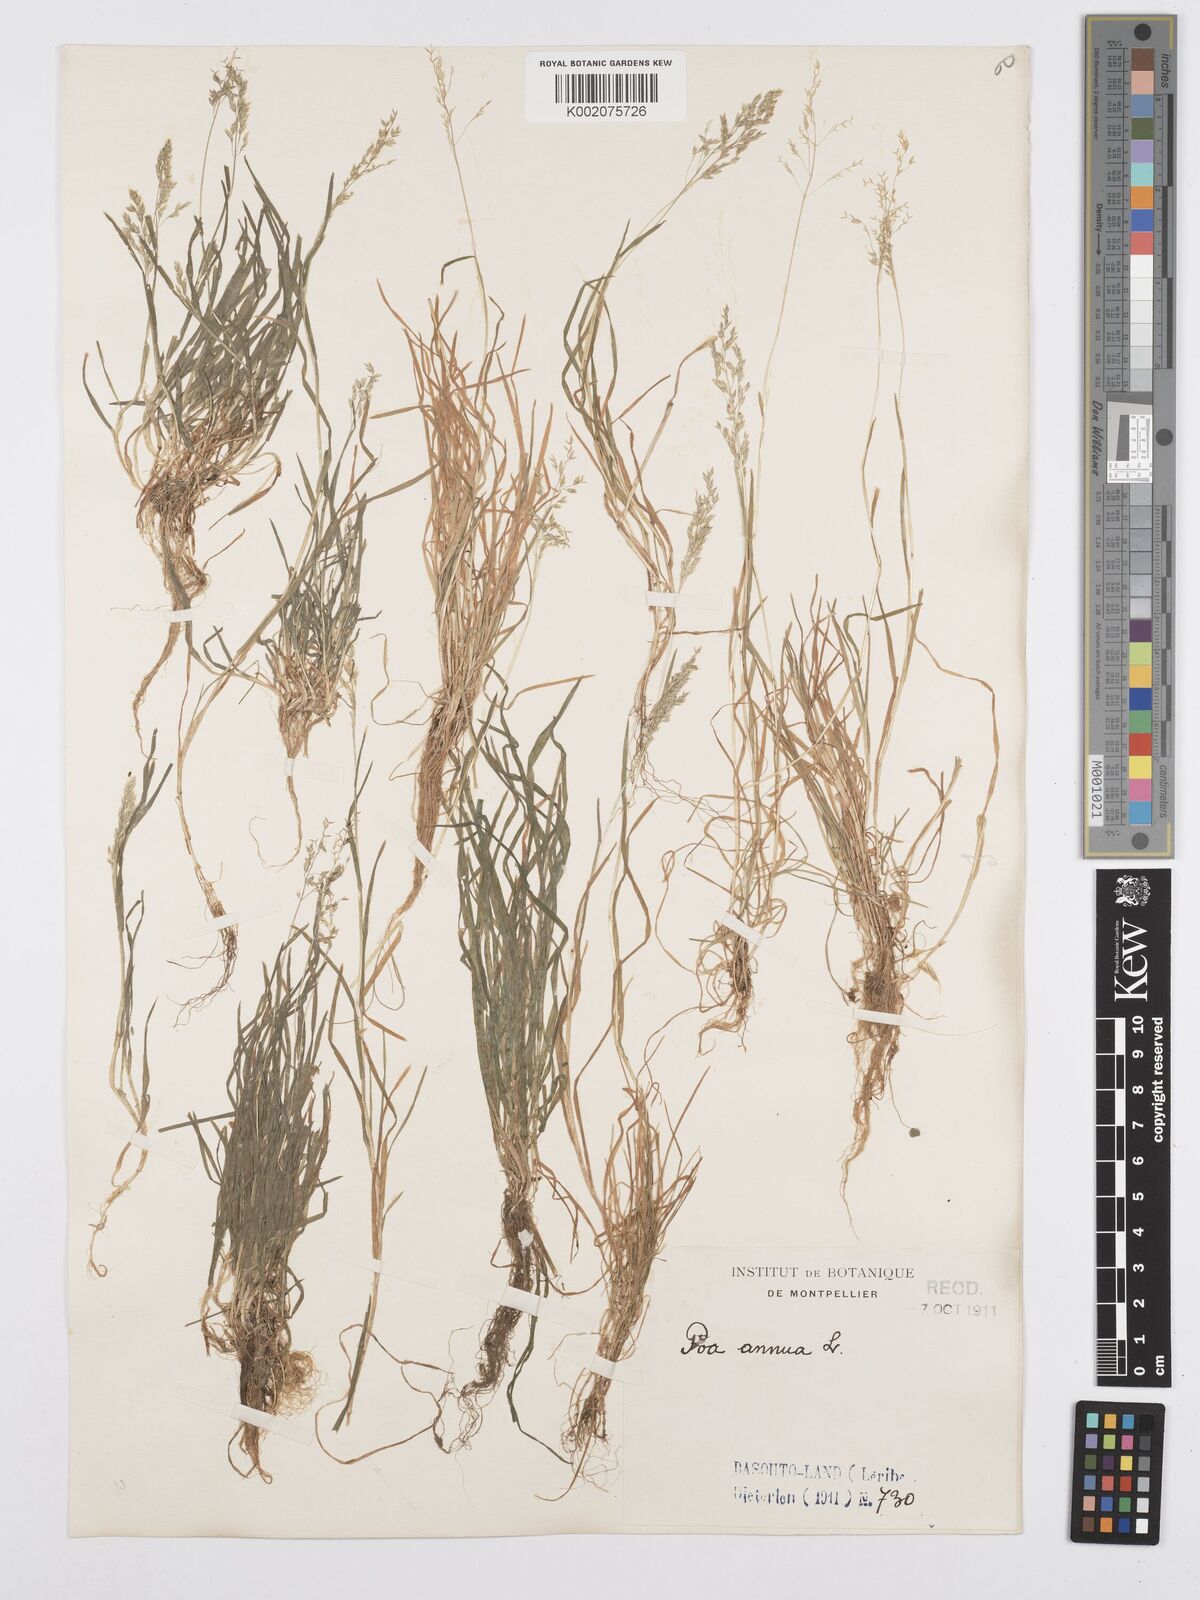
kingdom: Plantae
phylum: Tracheophyta
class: Liliopsida
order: Poales
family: Poaceae
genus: Poa
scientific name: Poa annua
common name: Annual bluegrass
